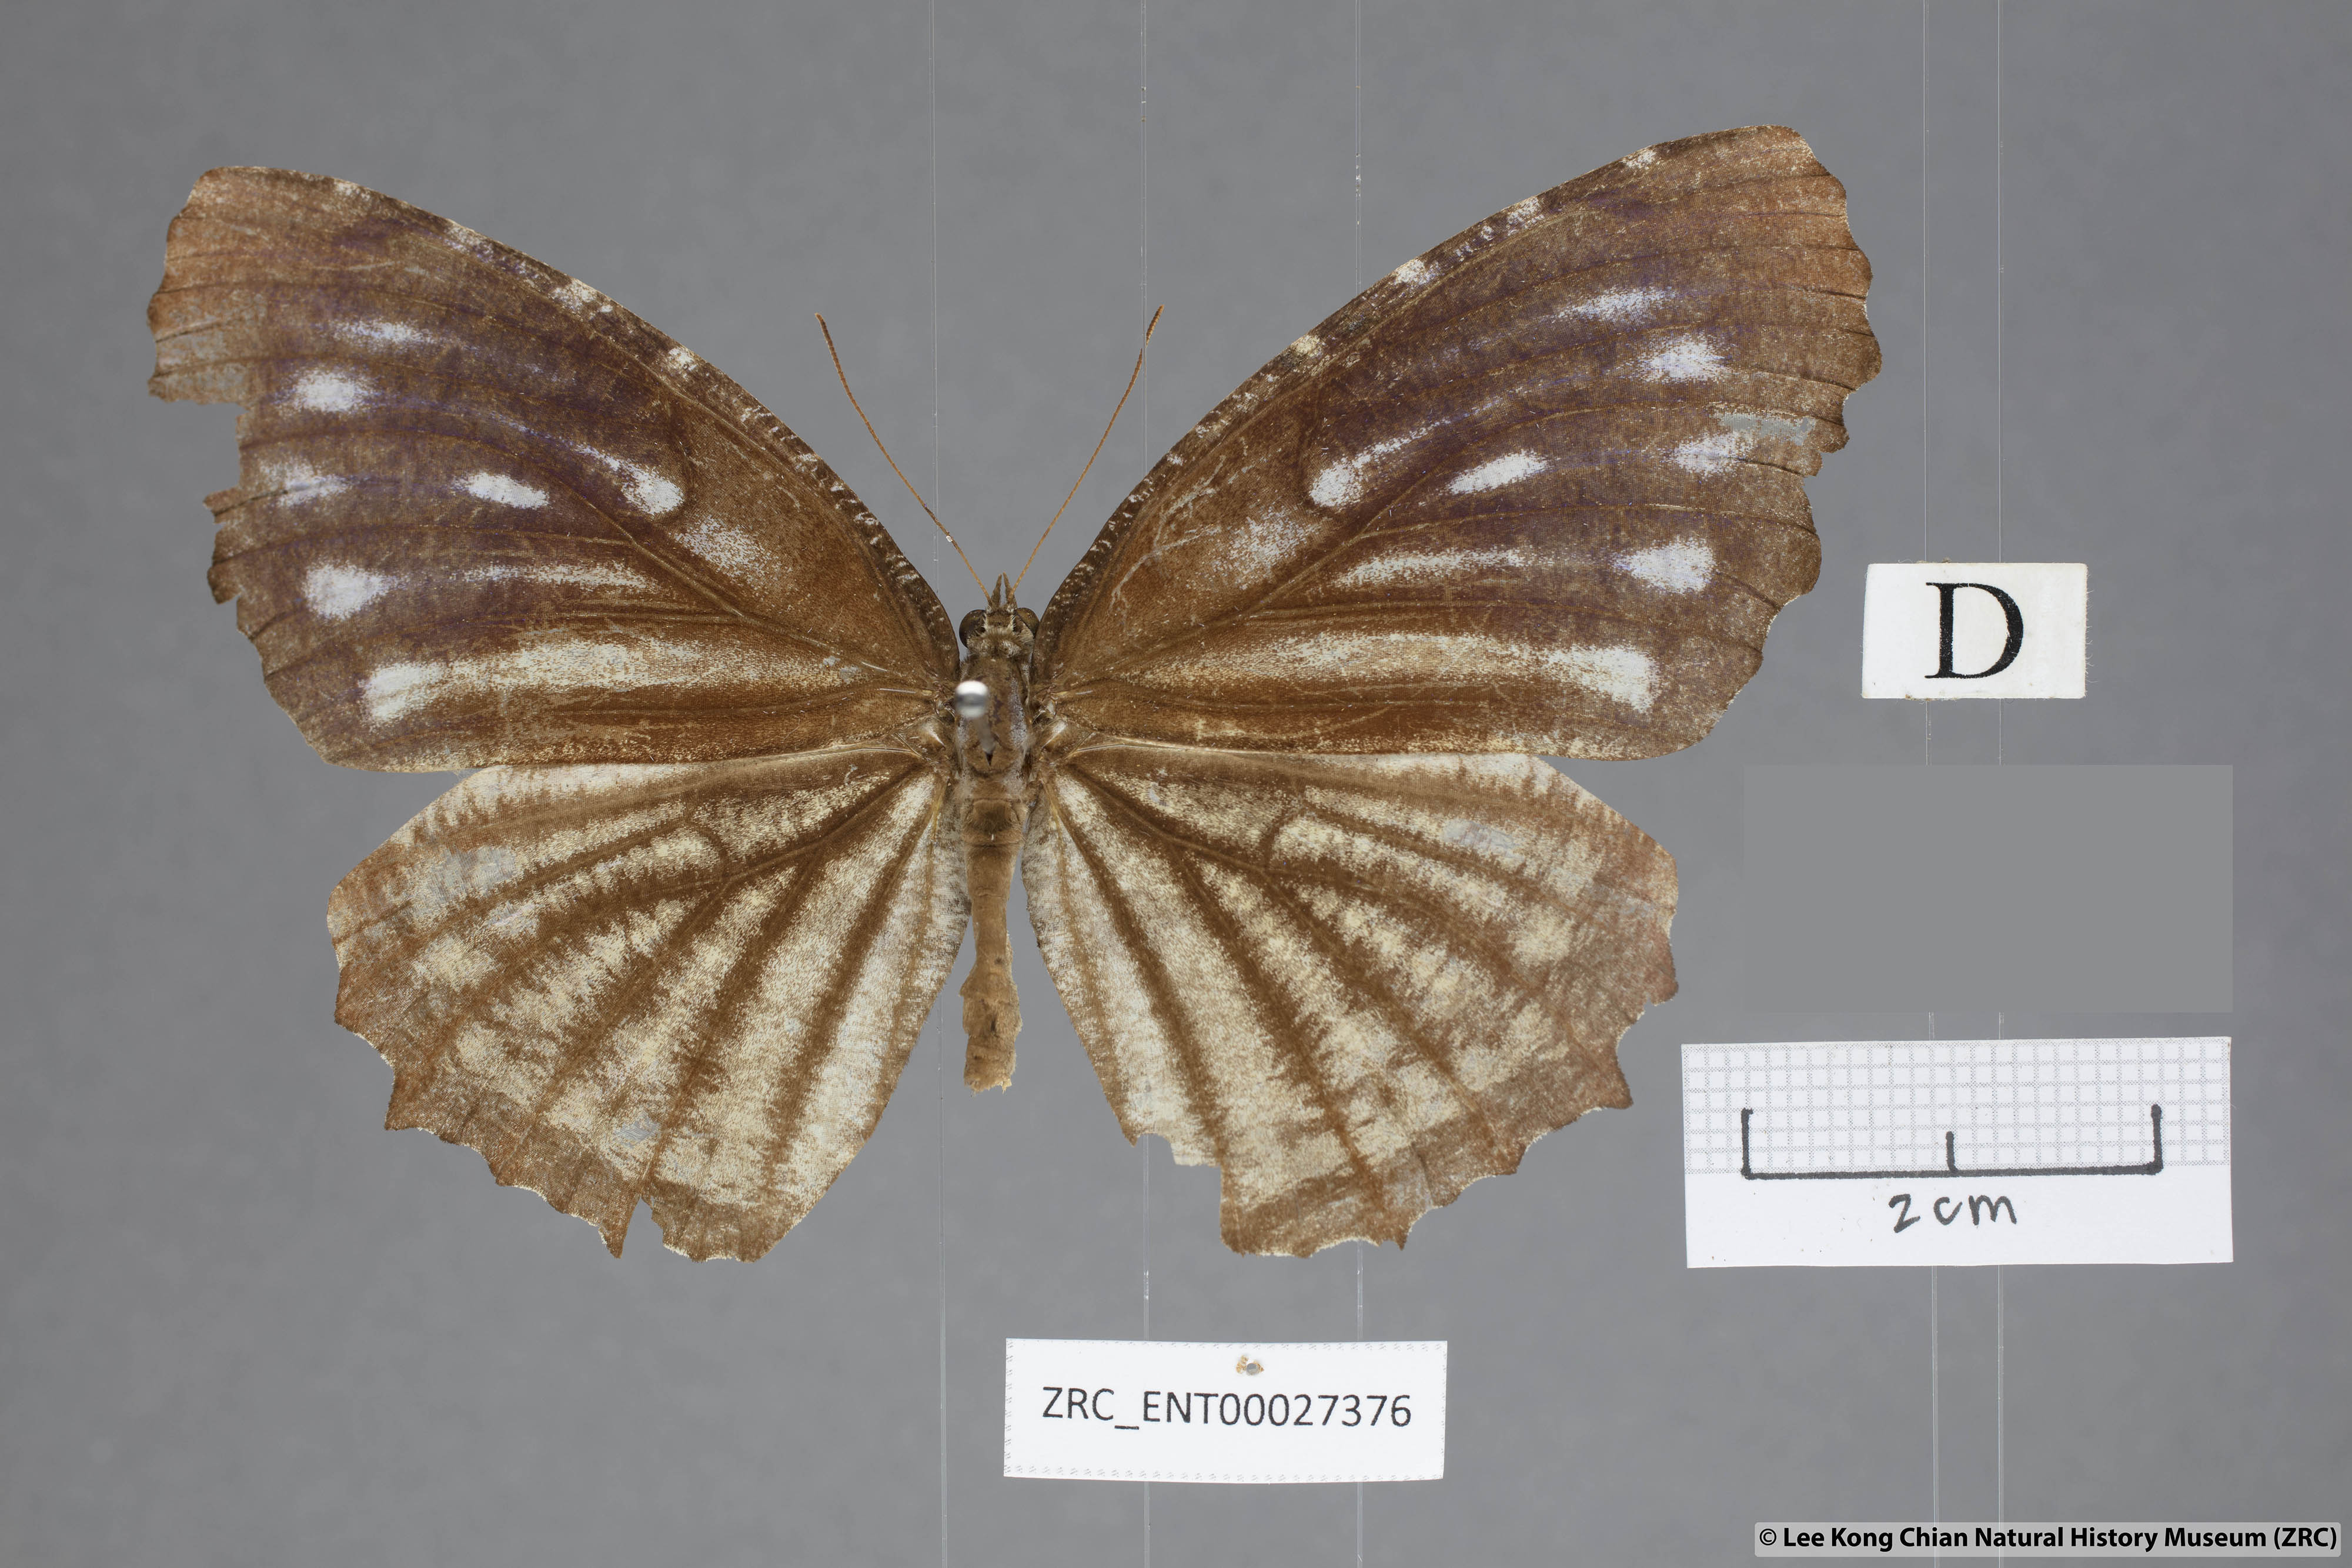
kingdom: Animalia
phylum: Arthropoda
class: Insecta
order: Lepidoptera
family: Nymphalidae
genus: Elymnias
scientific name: Elymnias casiphone
